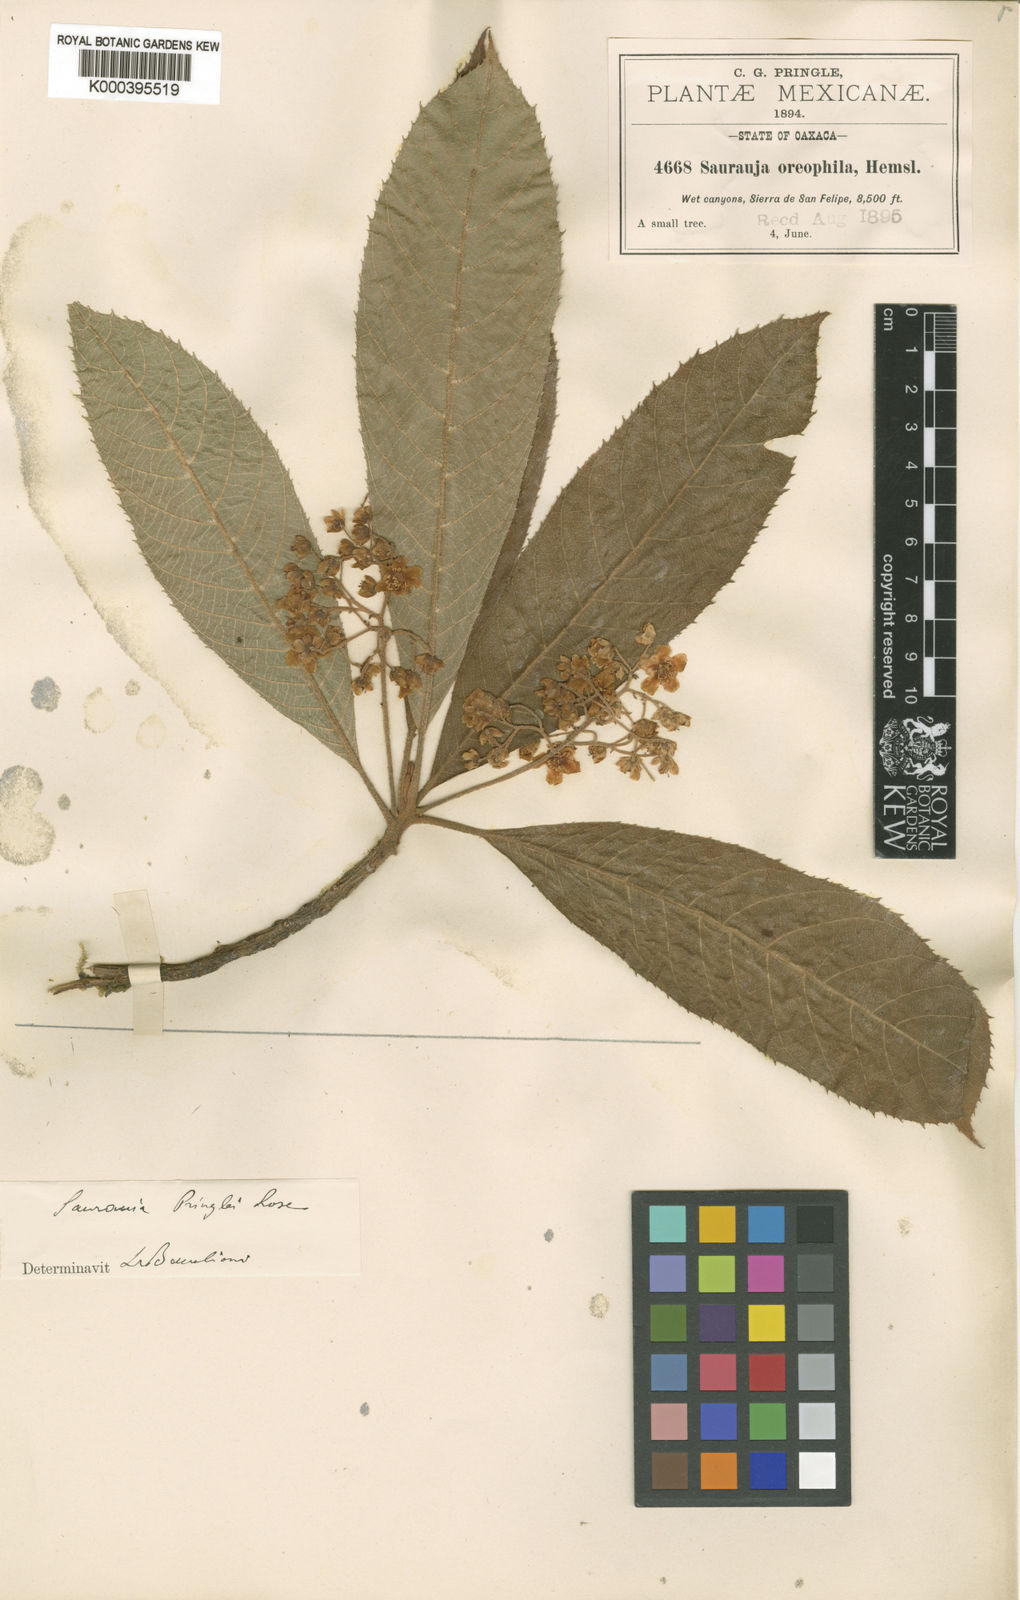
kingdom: Plantae
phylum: Tracheophyta
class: Magnoliopsida
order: Ericales
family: Actinidiaceae
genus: Saurauia
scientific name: Saurauia pringlei
